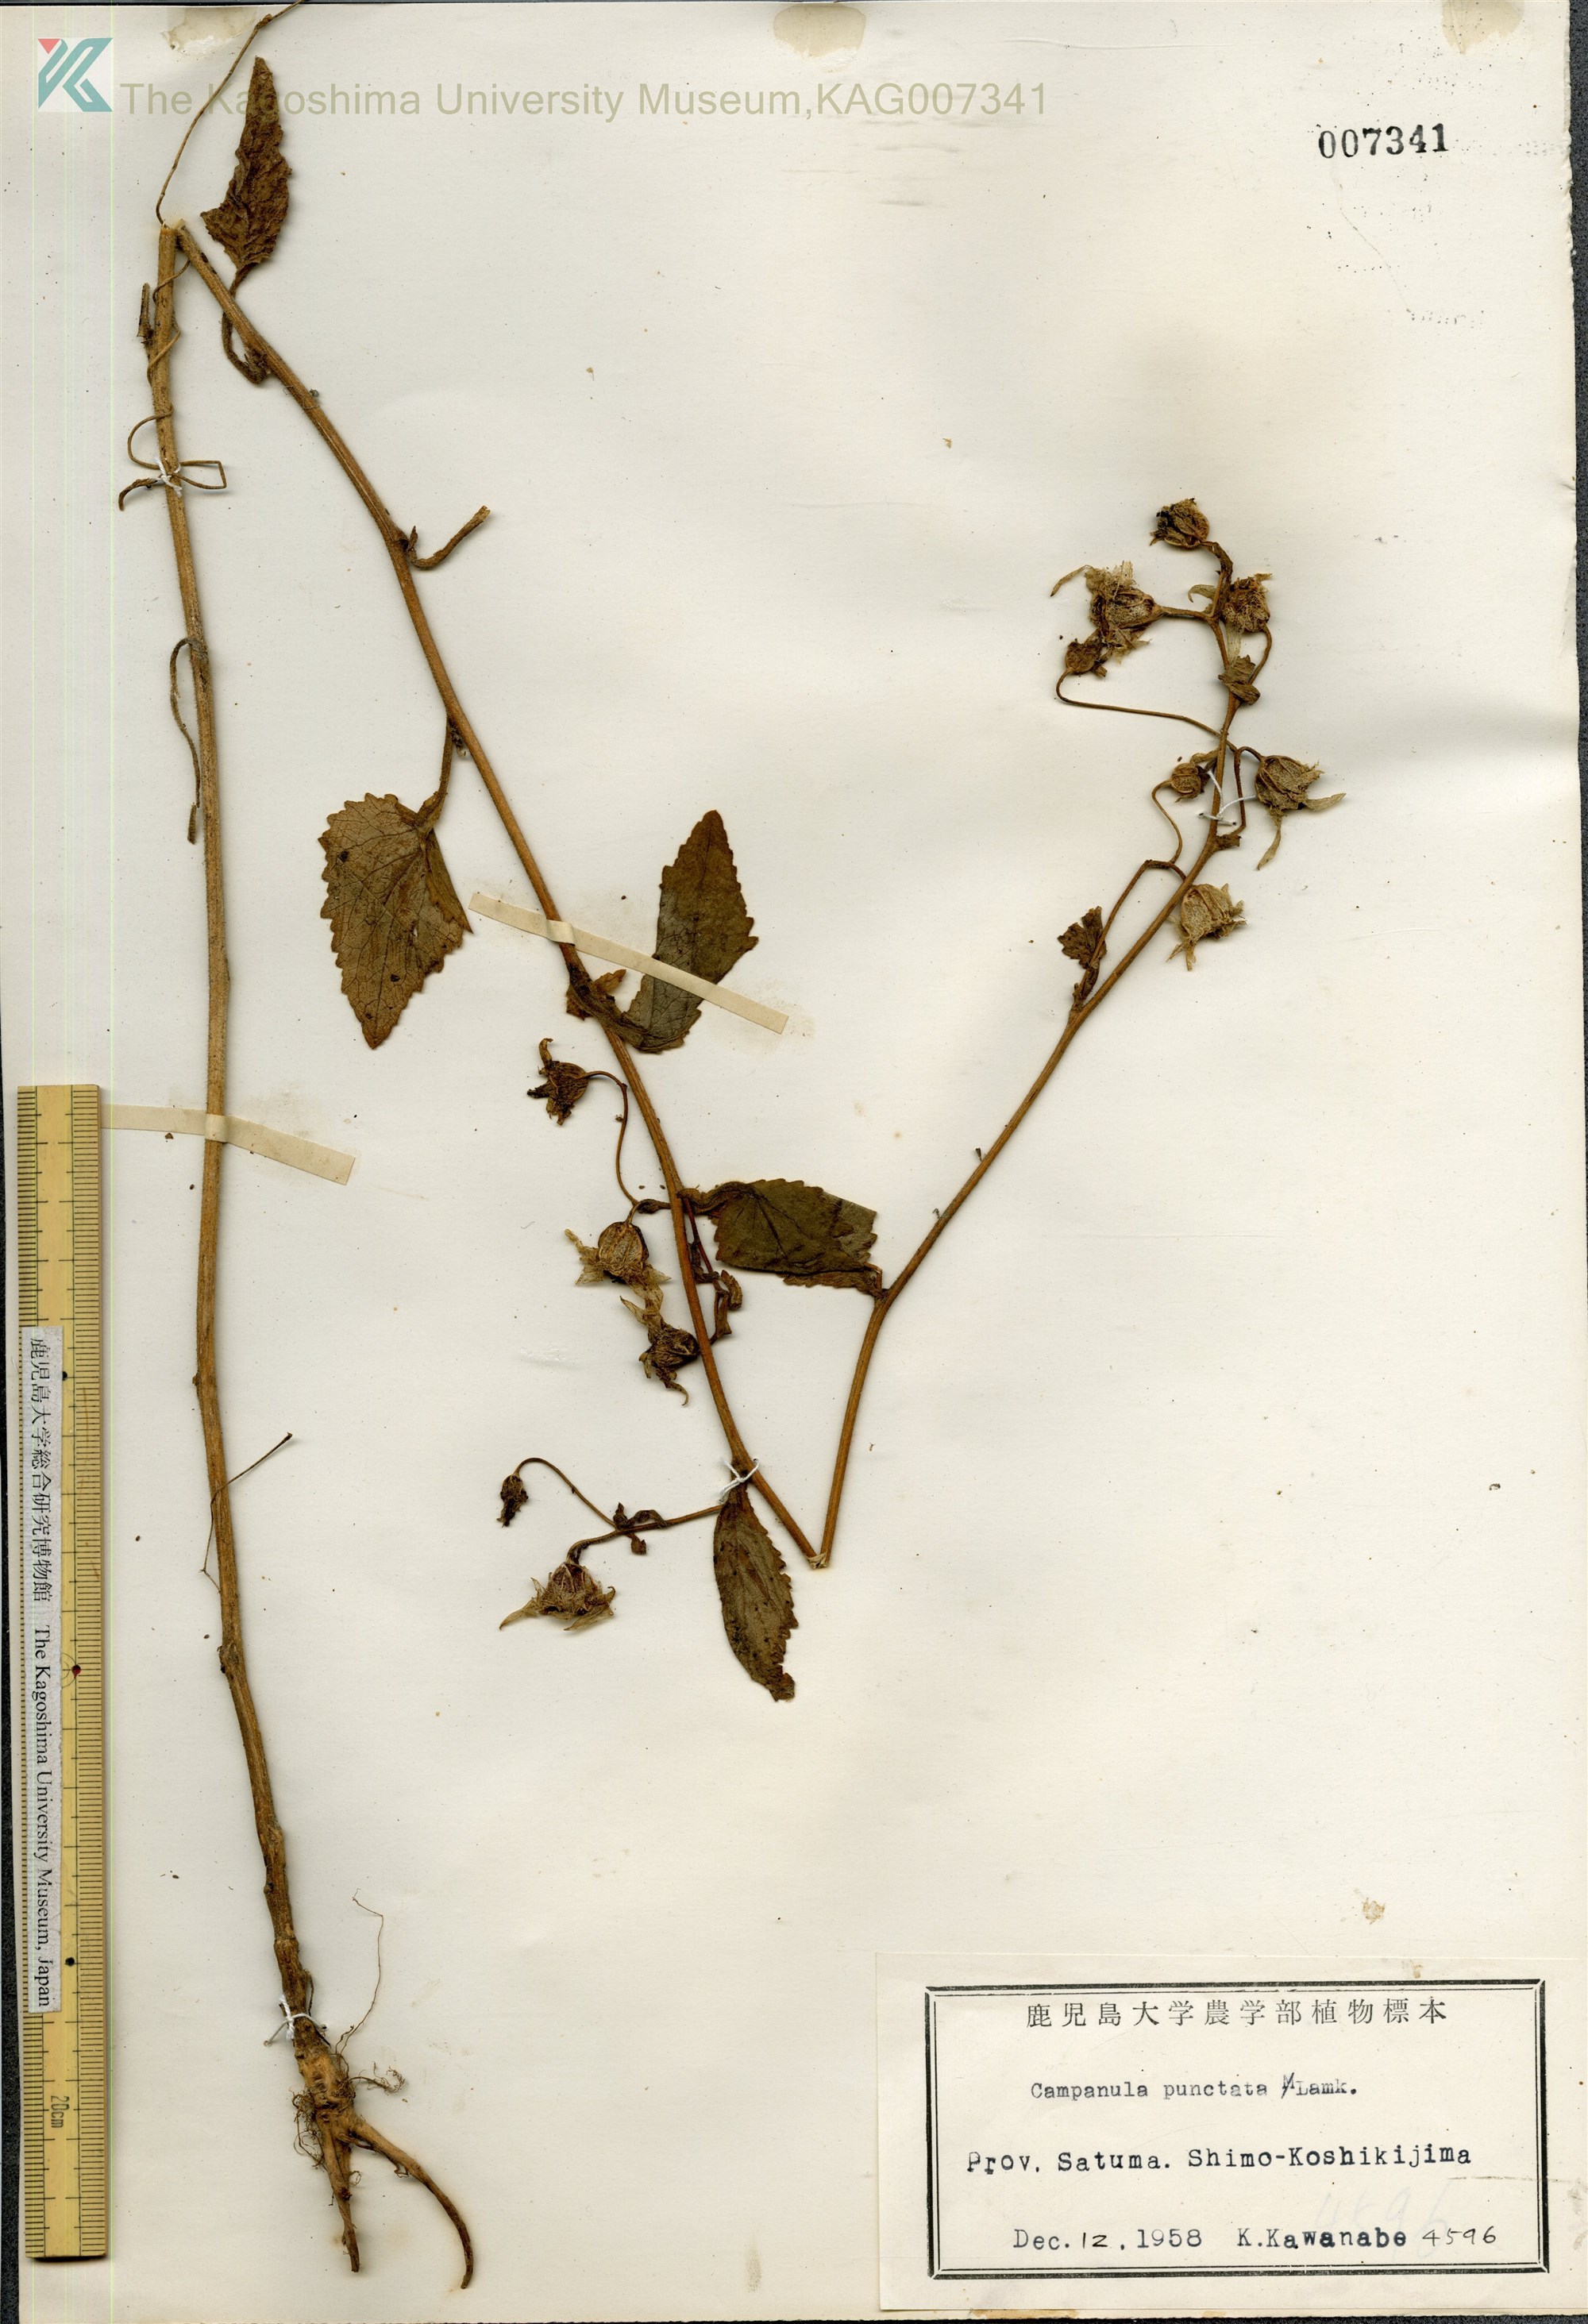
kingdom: Plantae
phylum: Tracheophyta
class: Magnoliopsida
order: Asterales
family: Campanulaceae
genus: Campanula
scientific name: Campanula punctata
